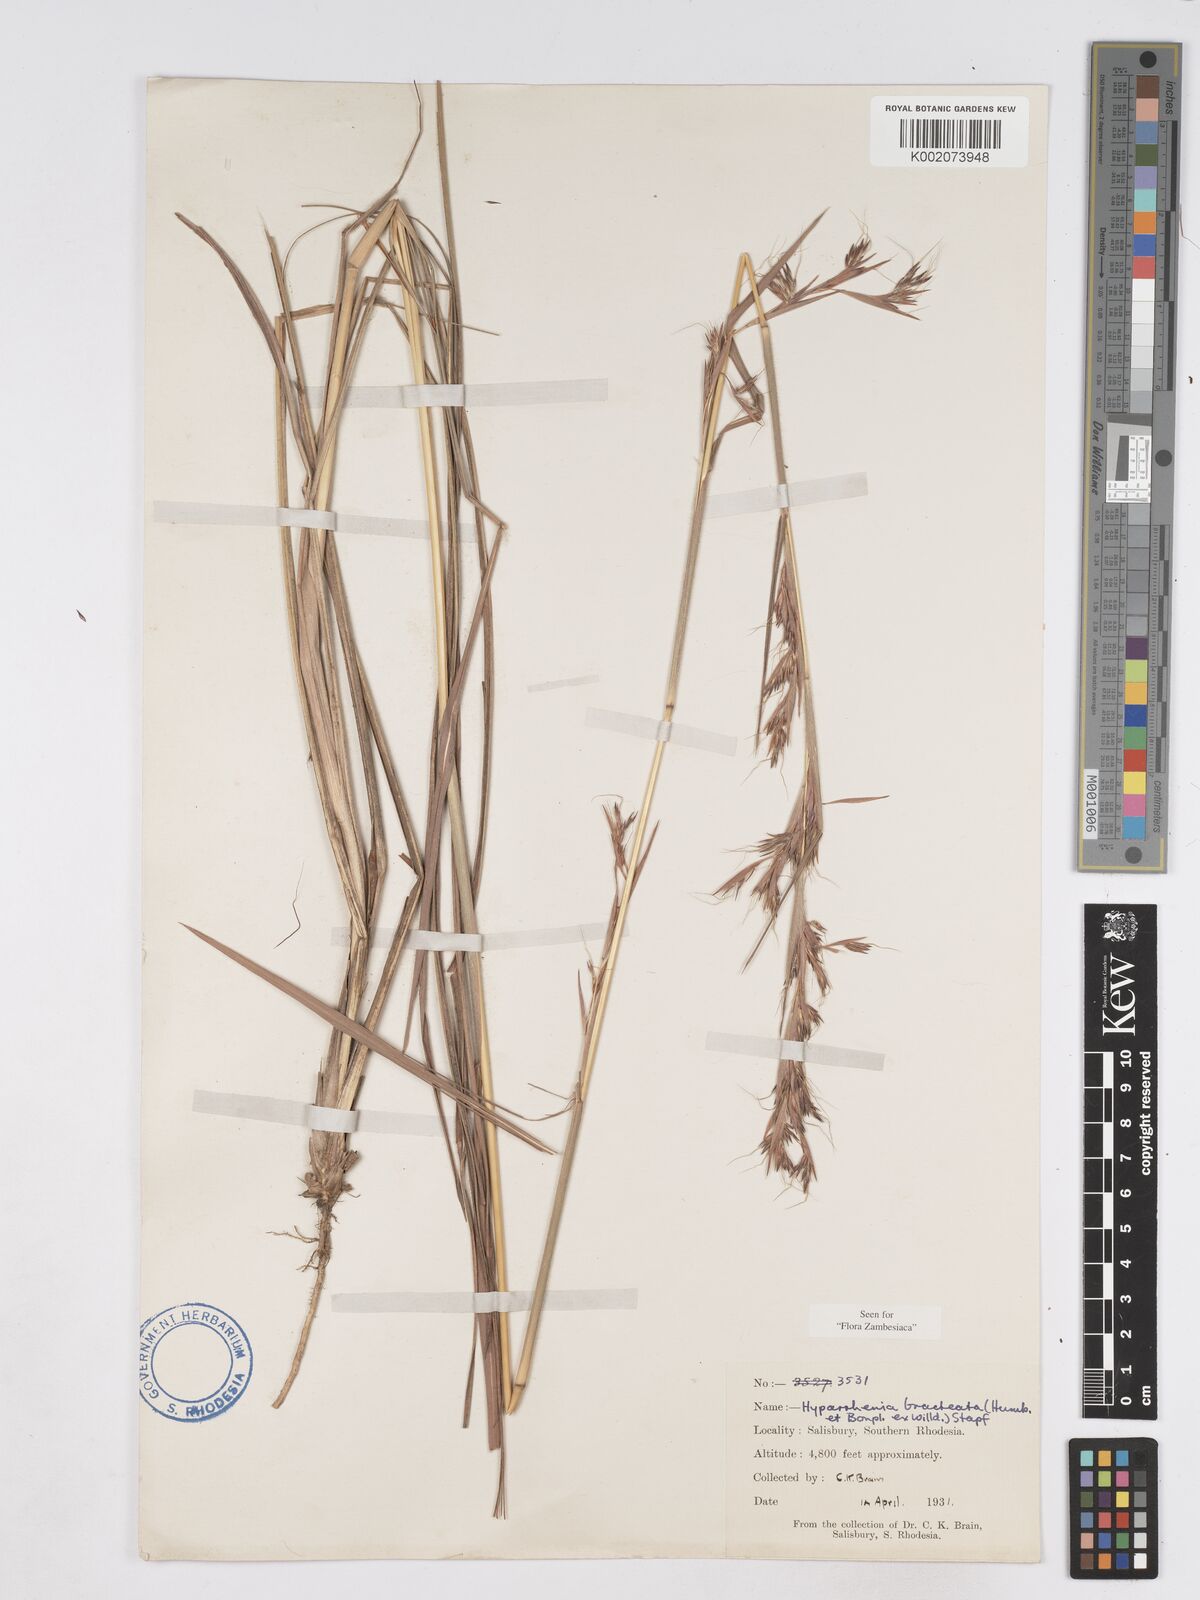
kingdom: Plantae
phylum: Tracheophyta
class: Liliopsida
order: Poales
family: Poaceae
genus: Hyparrhenia
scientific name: Hyparrhenia bracteata
